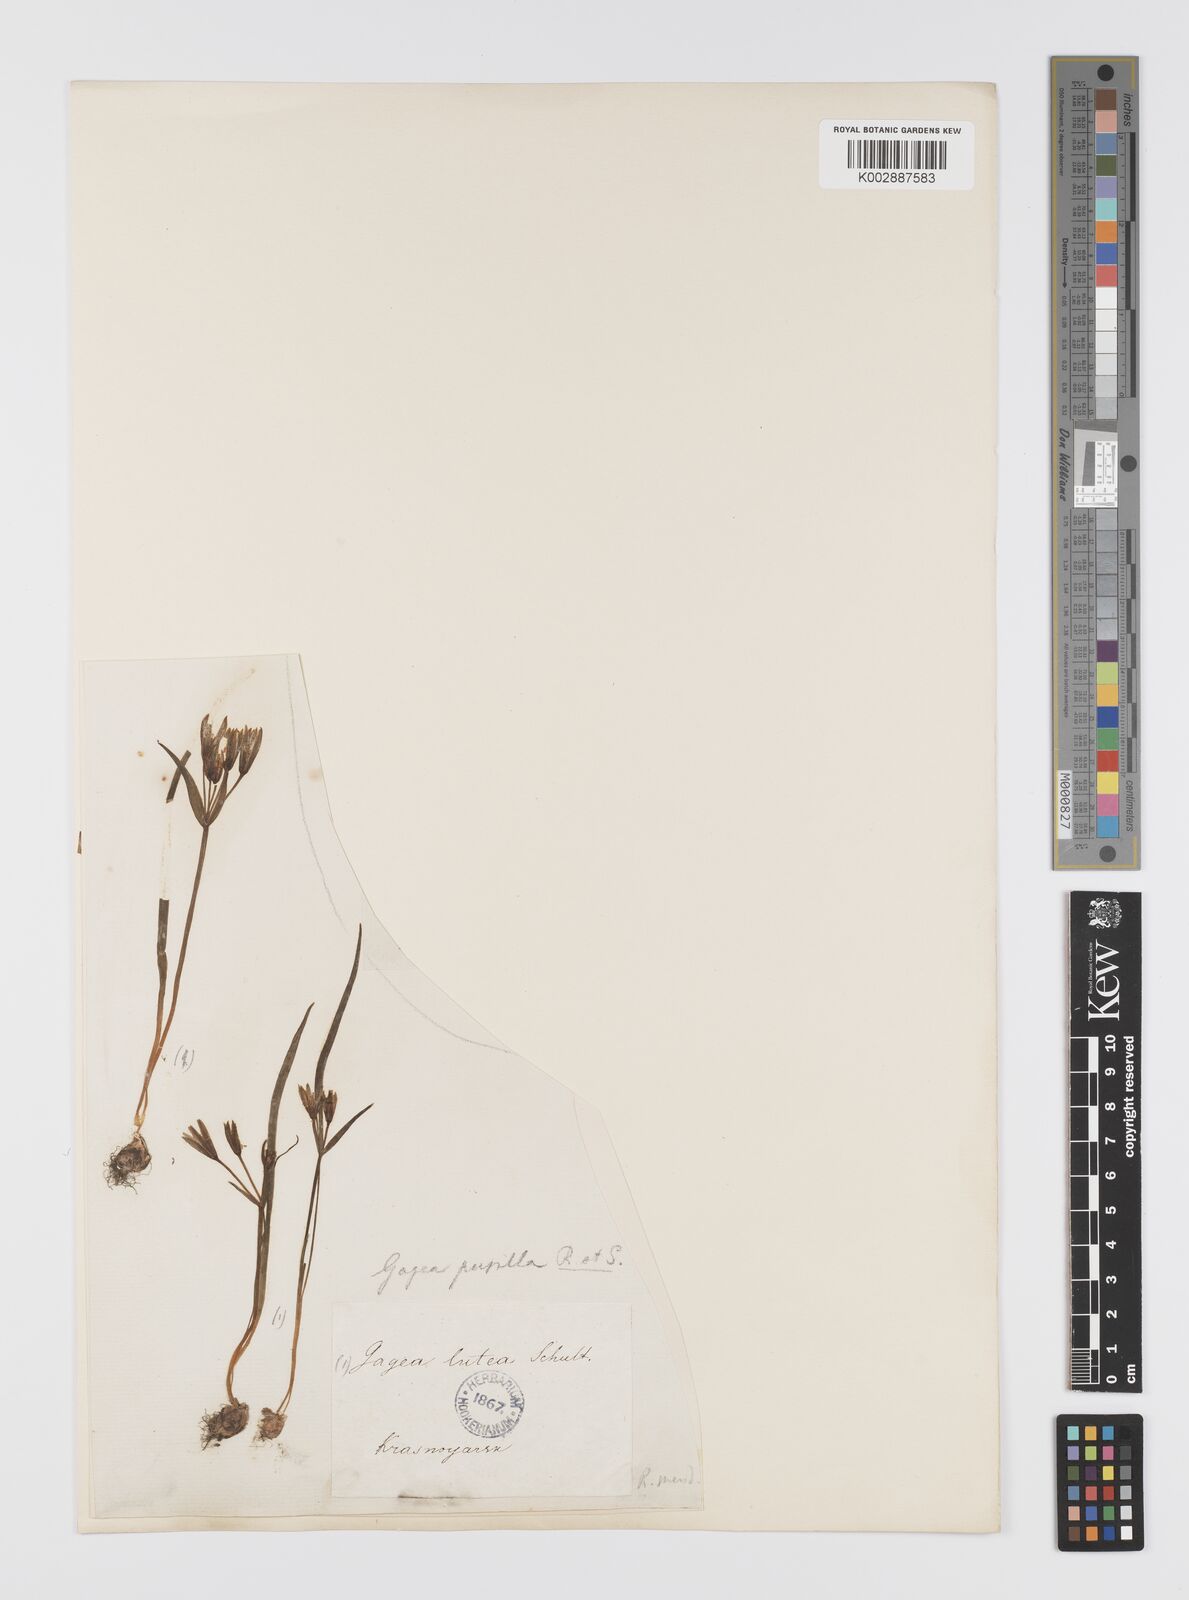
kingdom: Plantae
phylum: Tracheophyta
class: Liliopsida
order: Liliales
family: Liliaceae
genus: Gagea
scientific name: Gagea pusilla
